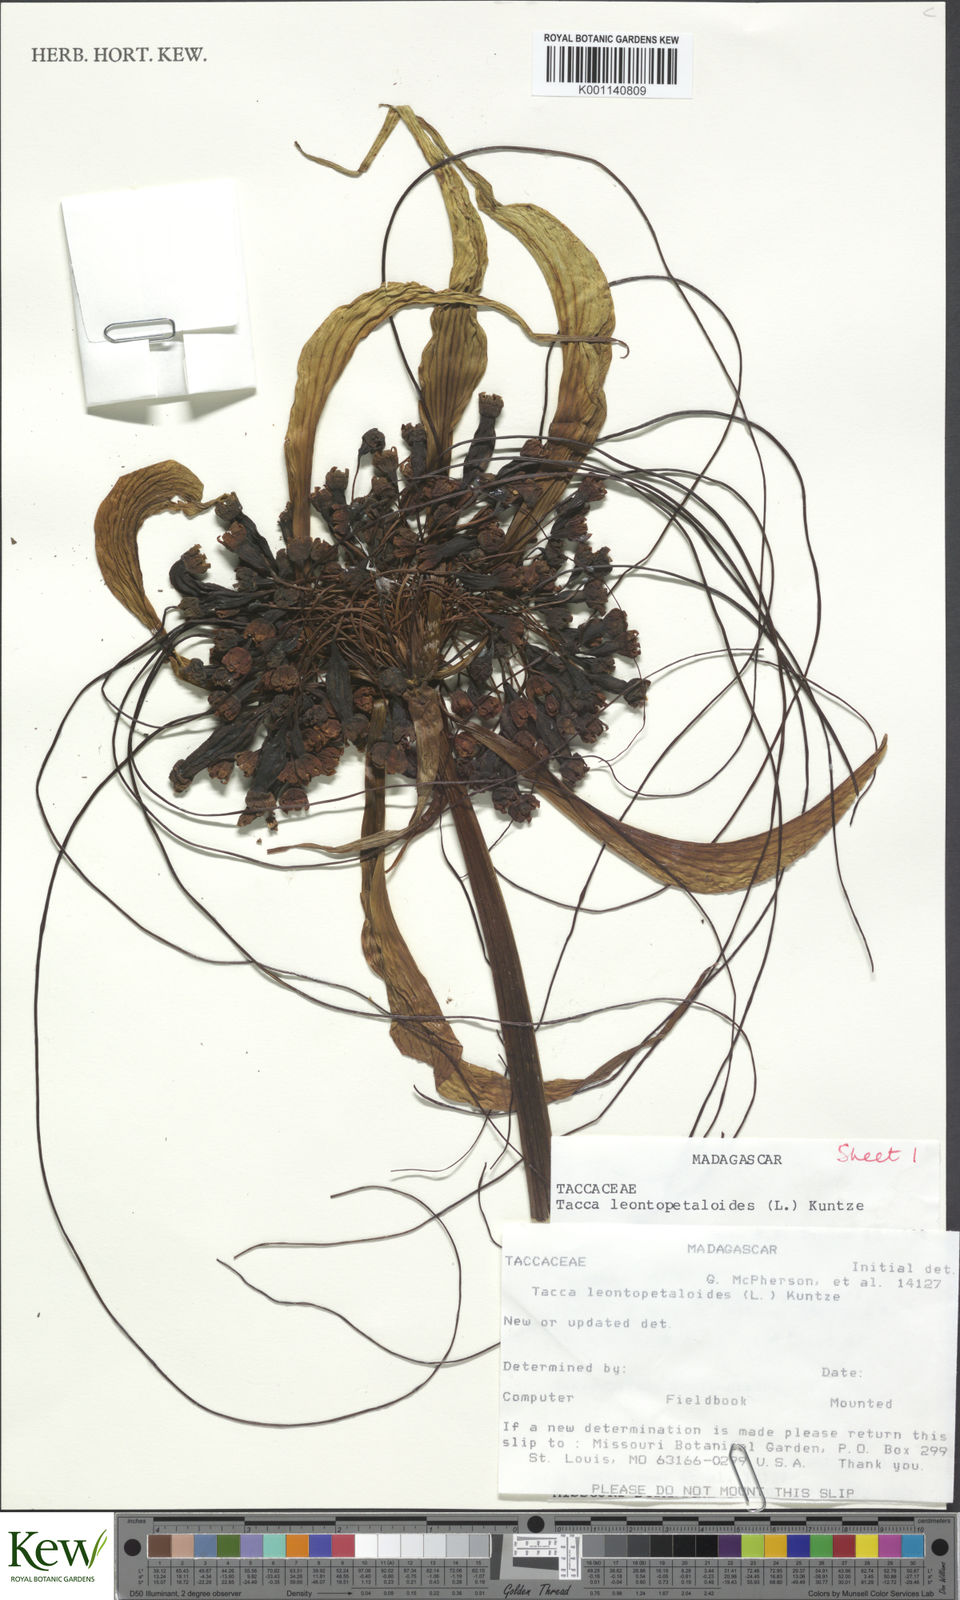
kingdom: Plantae
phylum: Tracheophyta
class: Liliopsida
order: Dioscoreales
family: Dioscoreaceae
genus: Tacca
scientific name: Tacca leontopetaloides
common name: Arrowroot
